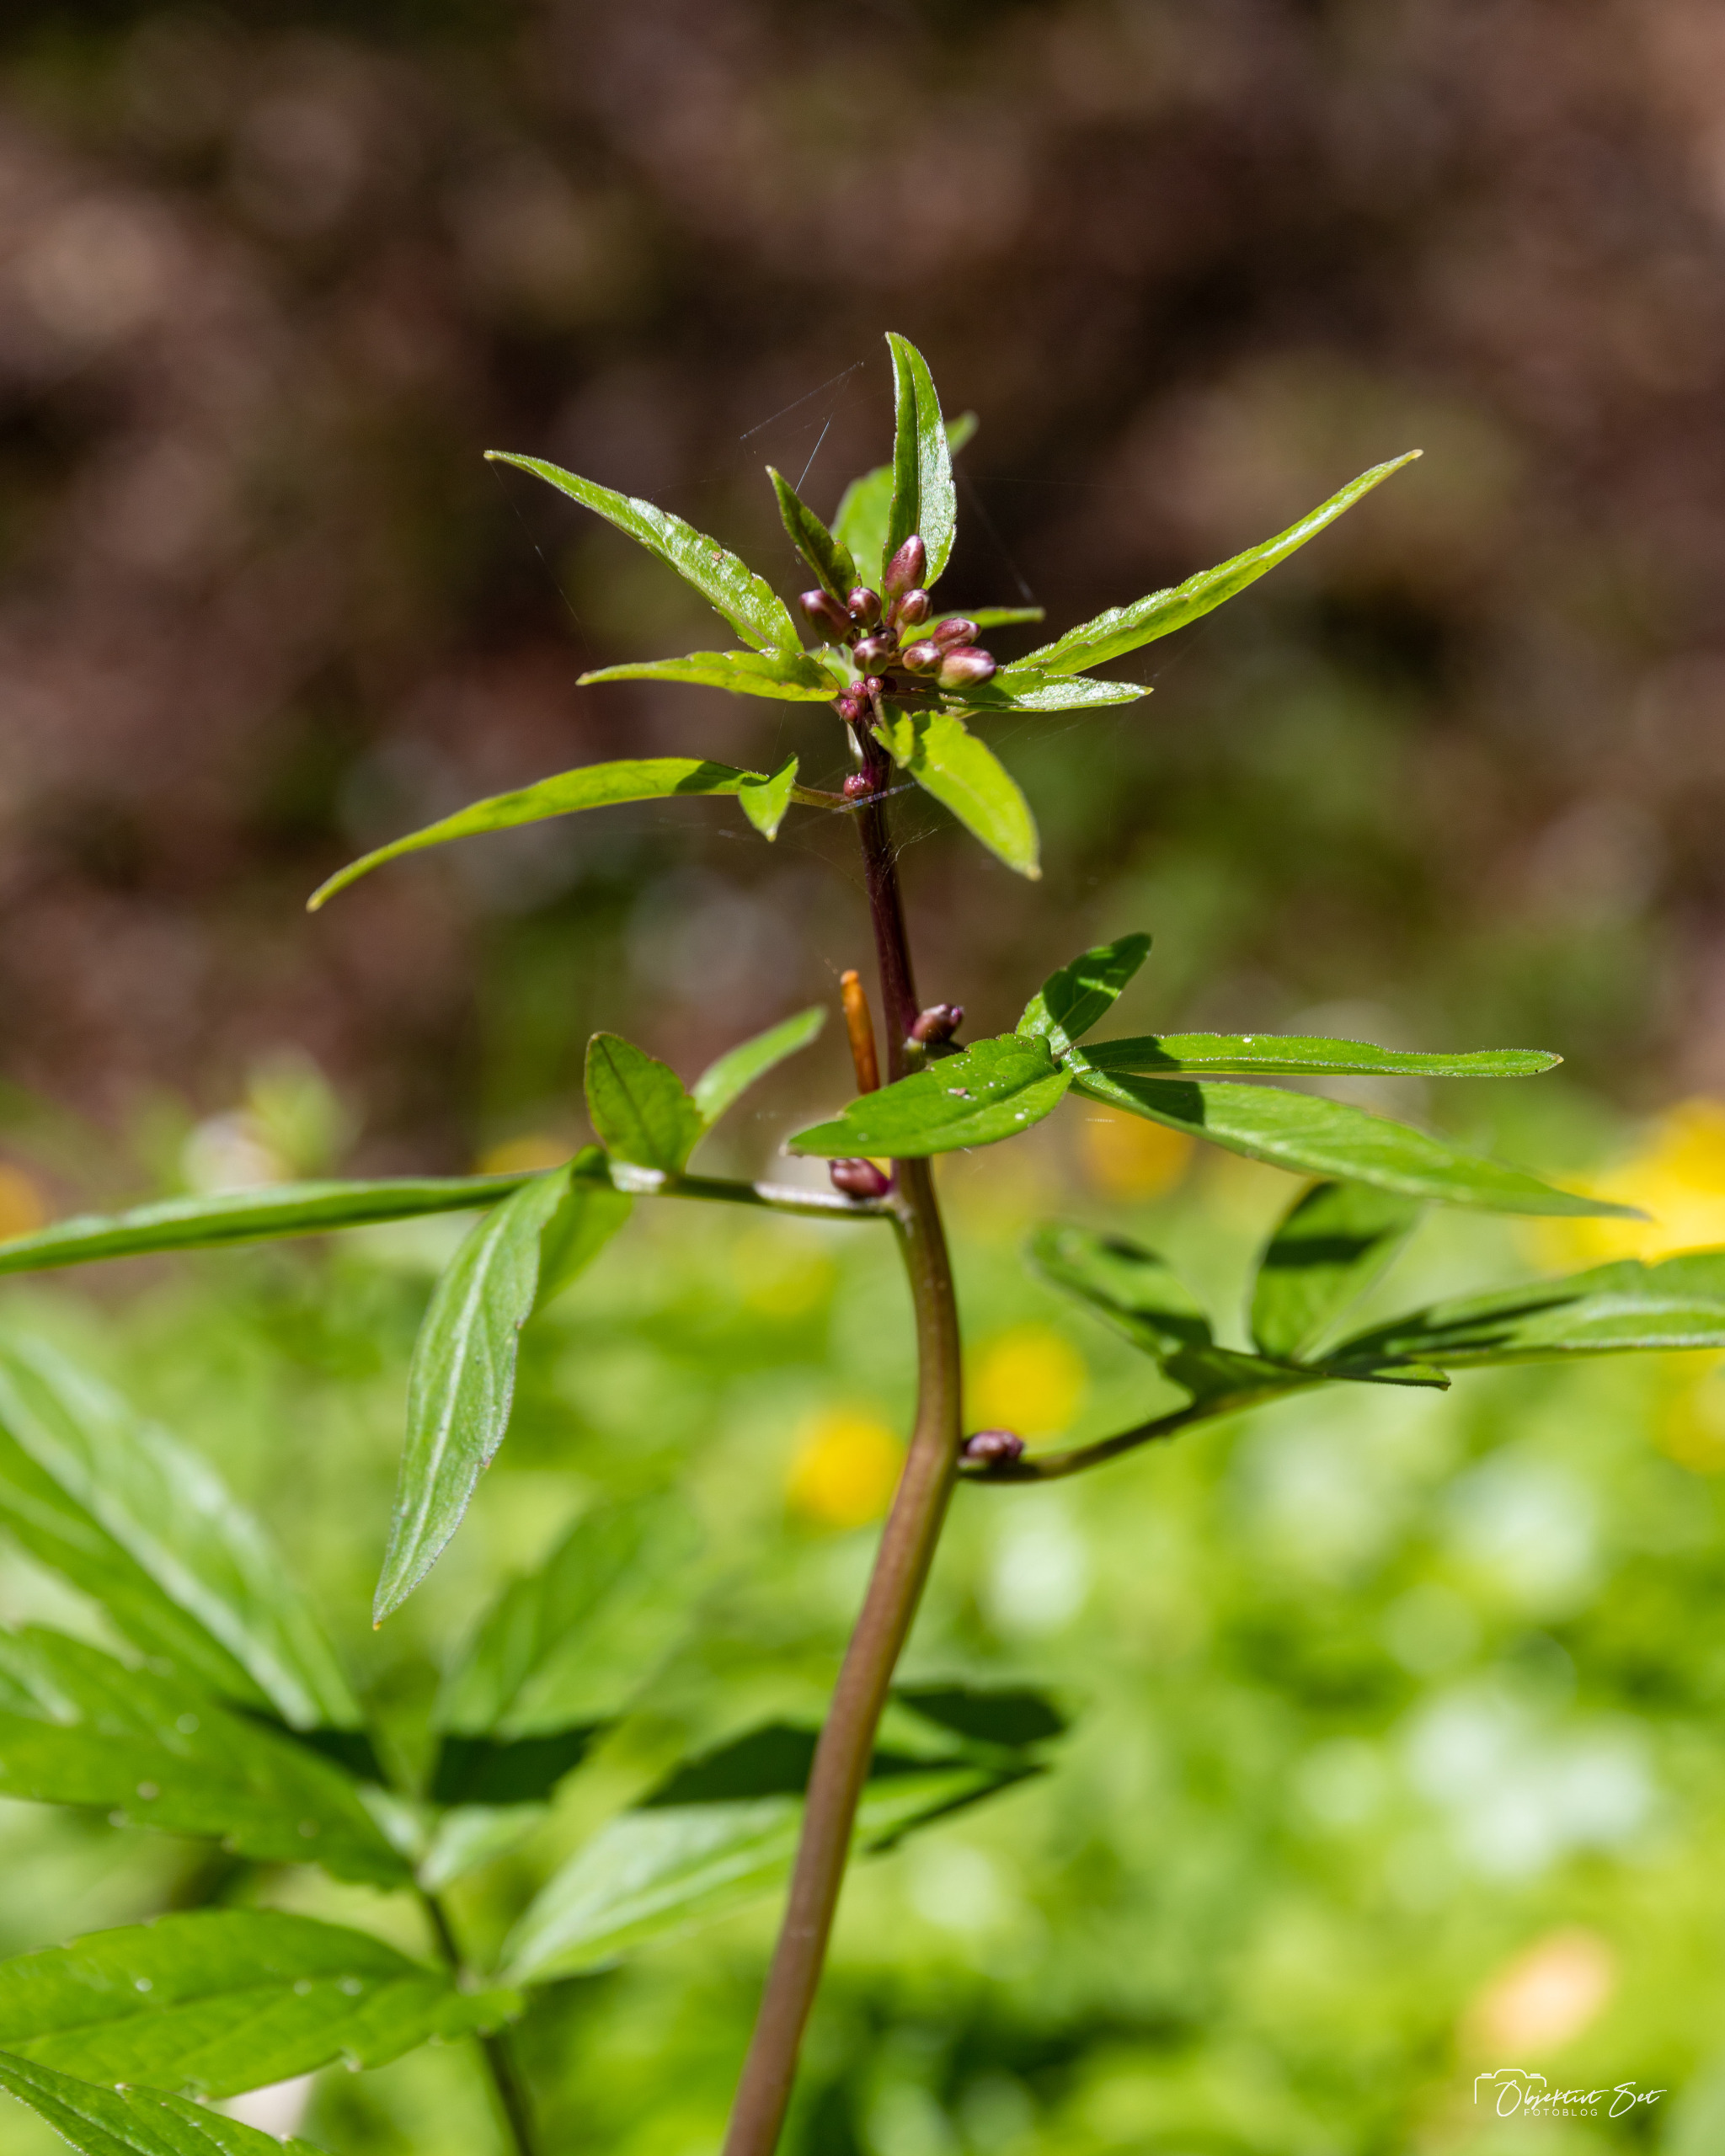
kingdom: Plantae
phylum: Tracheophyta
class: Magnoliopsida
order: Brassicales
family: Brassicaceae
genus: Cardamine
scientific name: Cardamine bulbifera
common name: Tandrod
